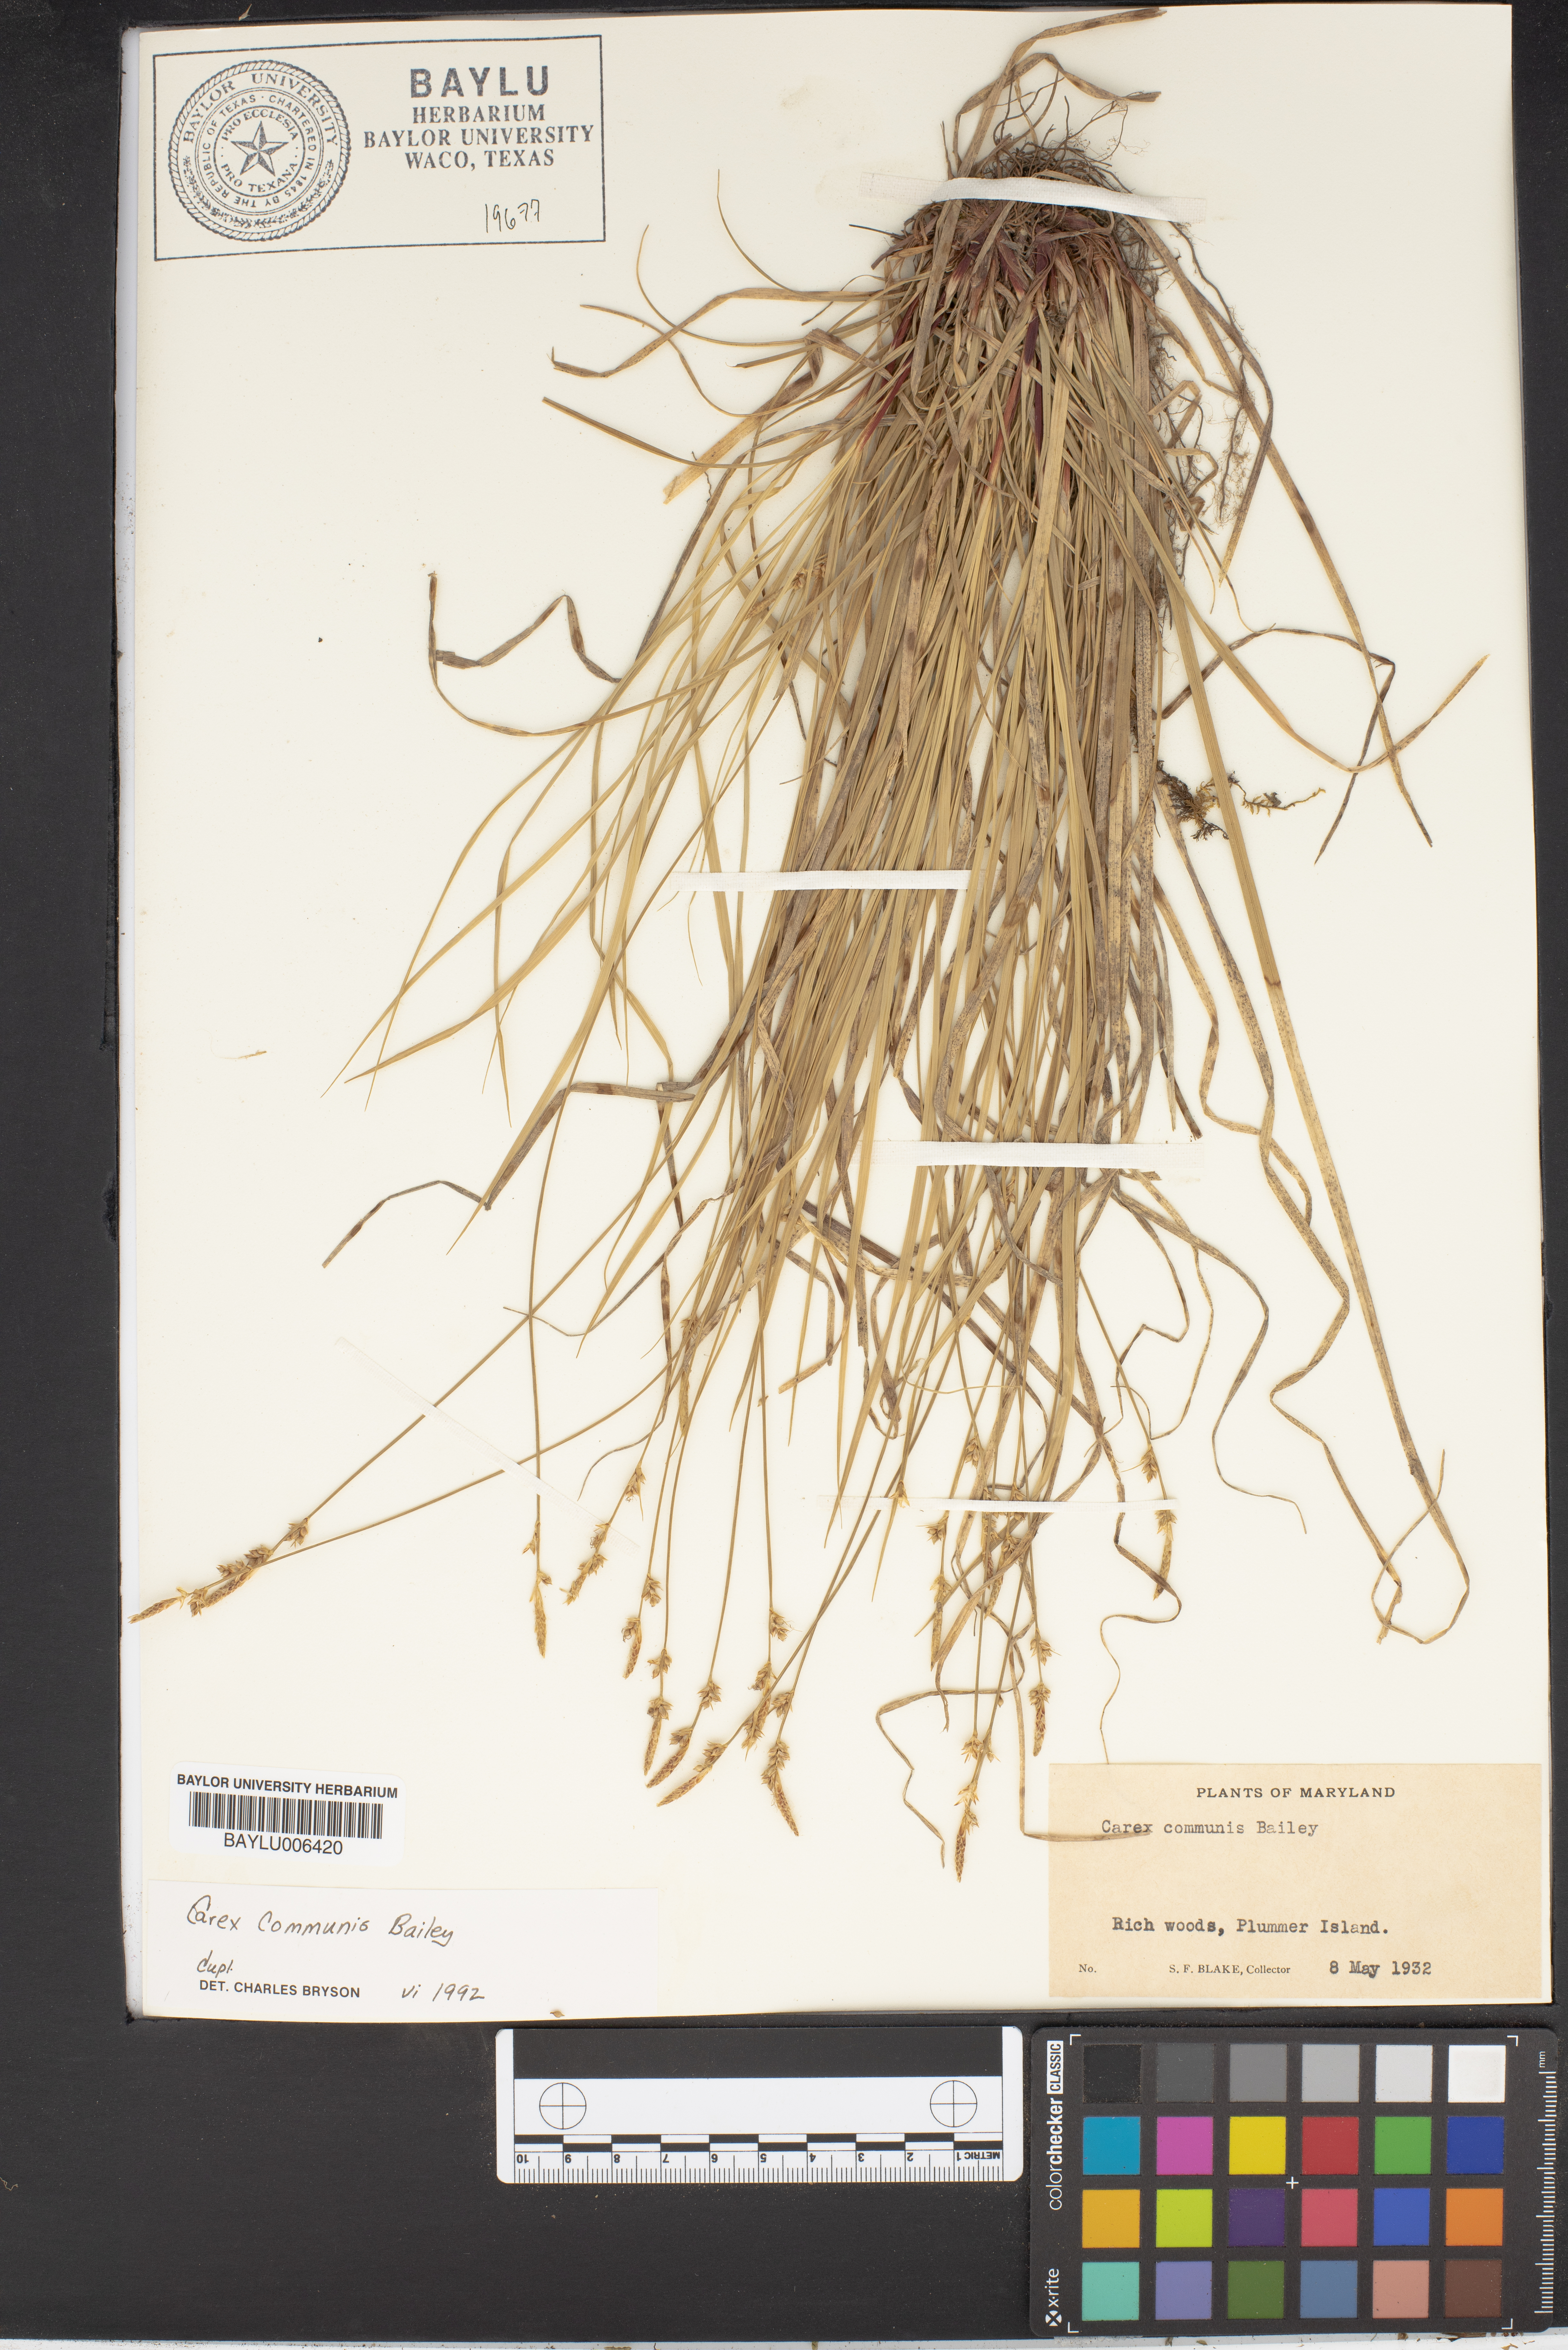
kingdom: Plantae
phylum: Tracheophyta
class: Liliopsida
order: Poales
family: Cyperaceae
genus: Carex
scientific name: Carex communis
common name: Colonial oak sedge
